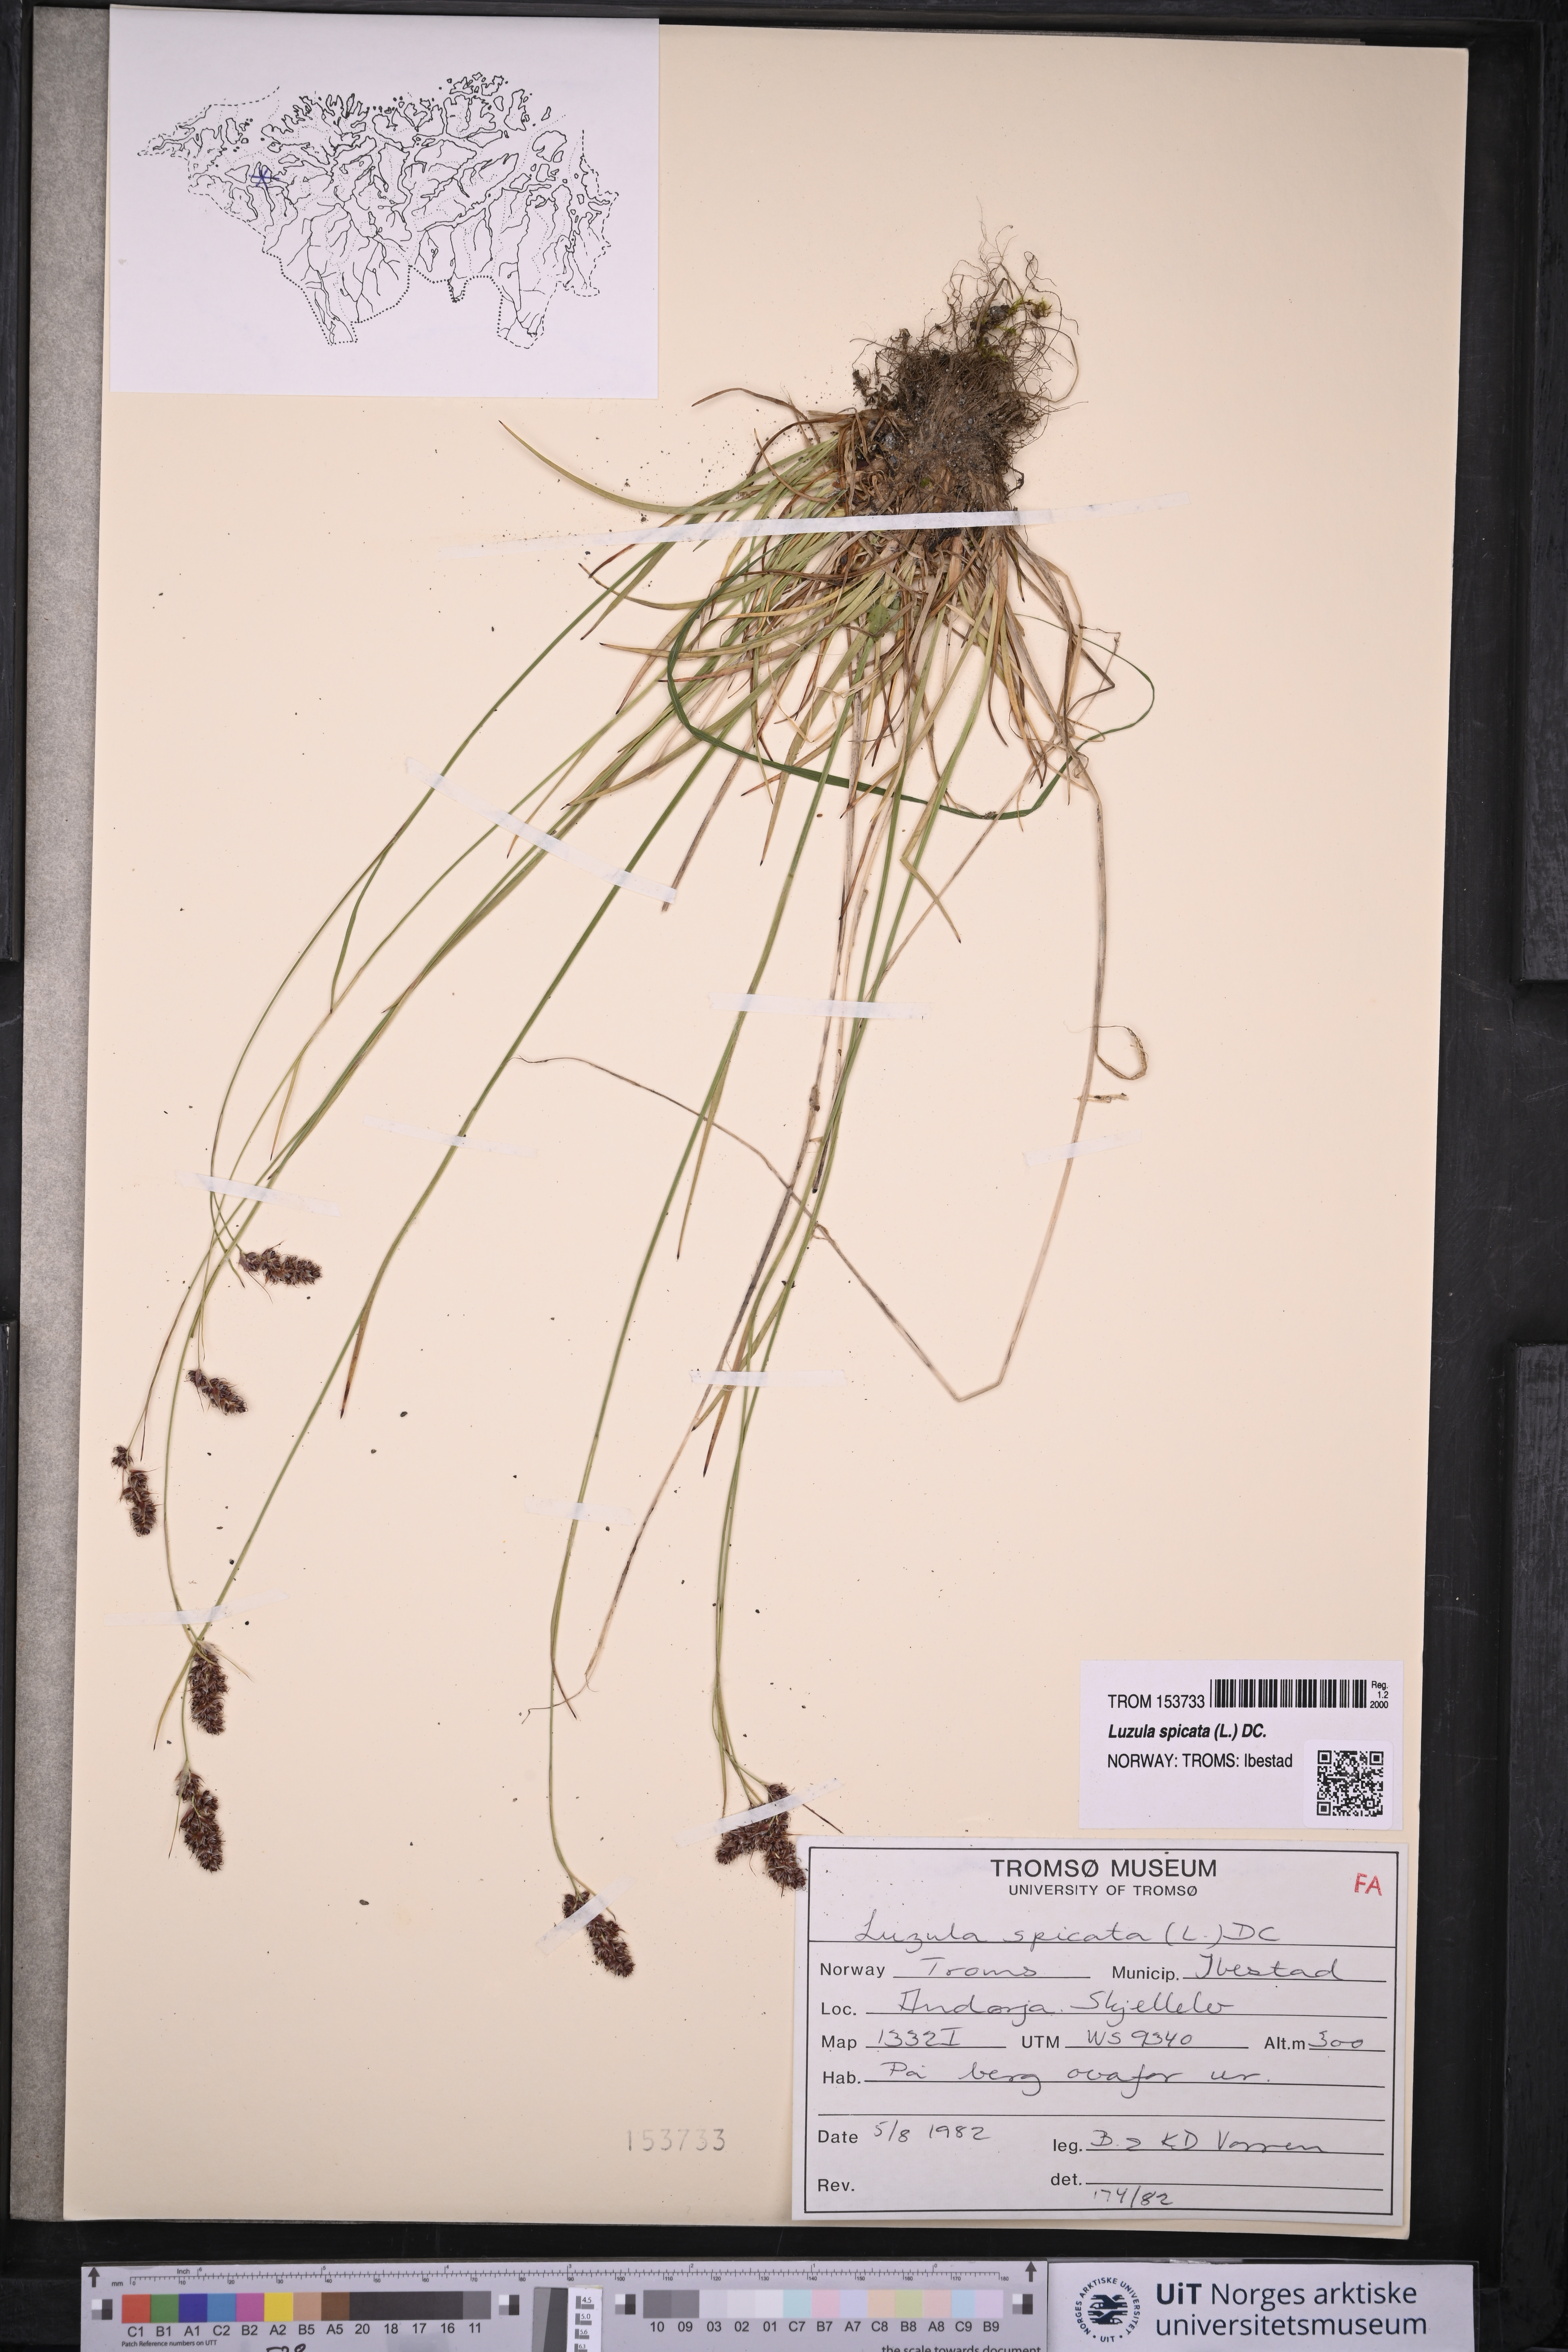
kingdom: Plantae
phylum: Tracheophyta
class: Liliopsida
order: Poales
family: Juncaceae
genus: Luzula
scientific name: Luzula spicata
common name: Spiked wood-rush
